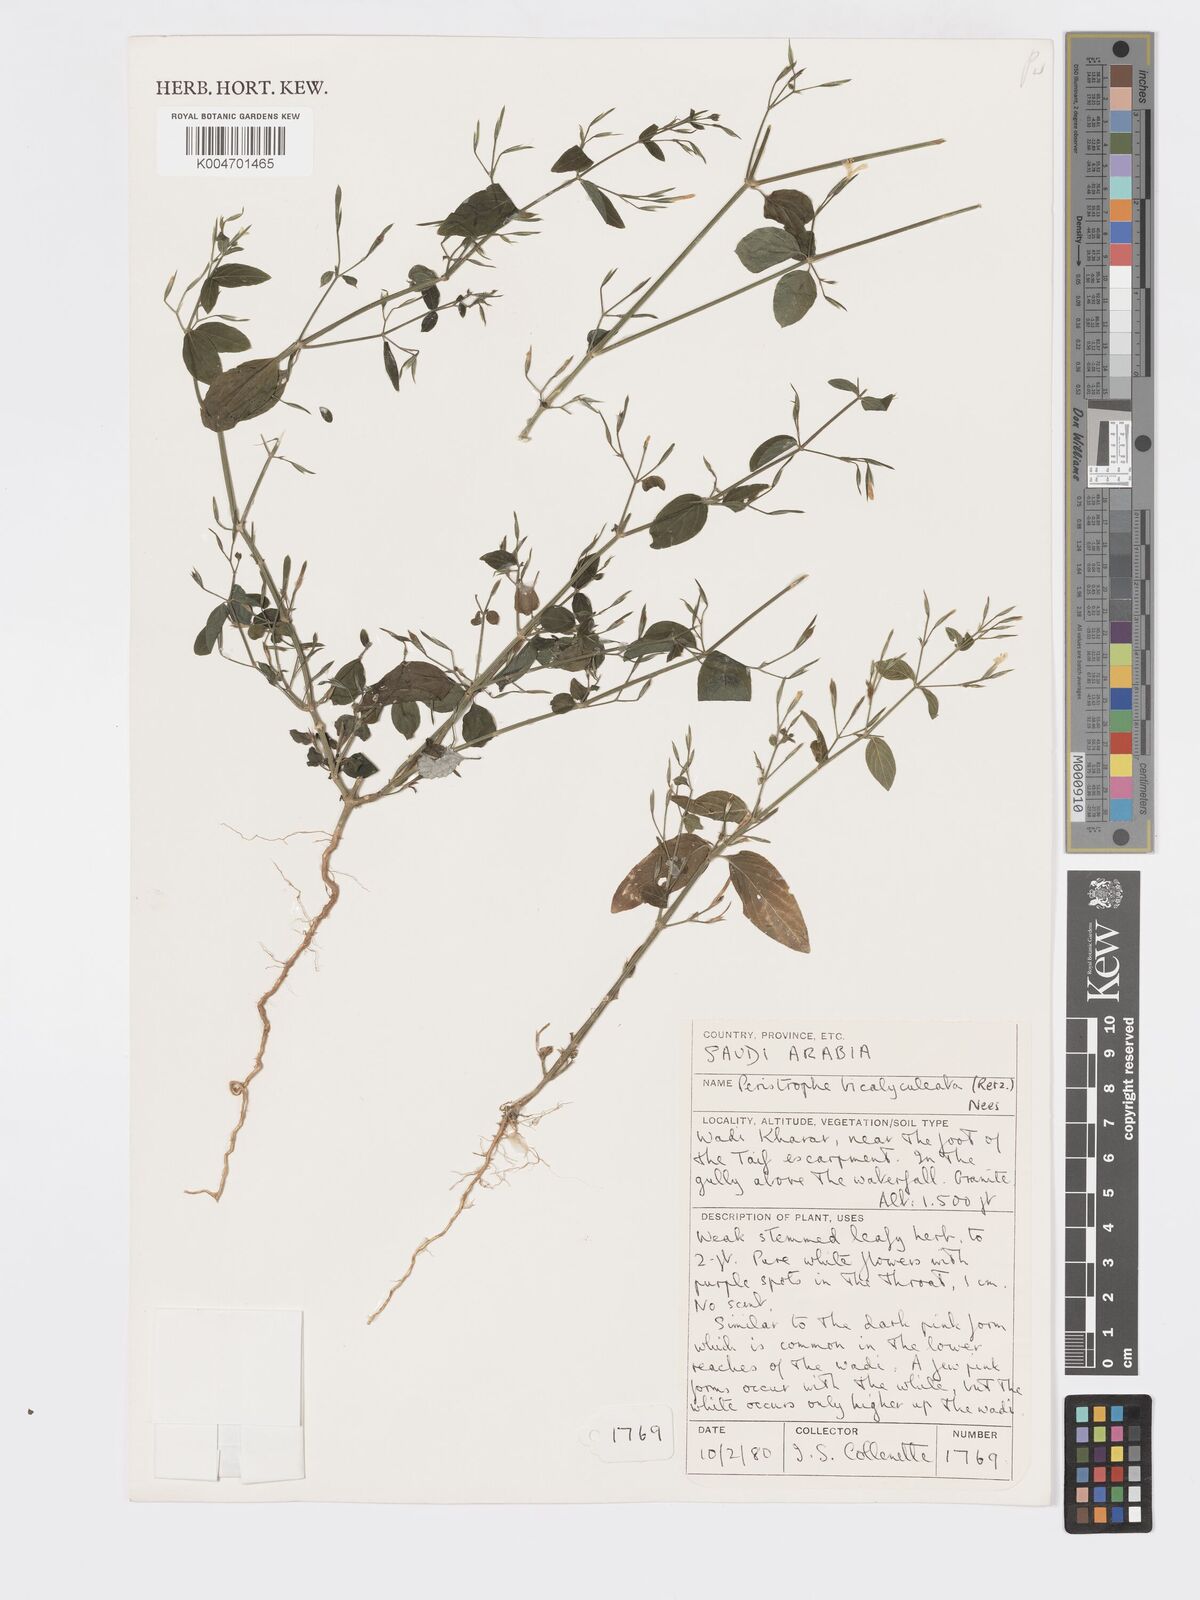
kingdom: Plantae
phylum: Tracheophyta
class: Magnoliopsida
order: Lamiales
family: Acanthaceae
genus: Dicliptera
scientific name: Dicliptera paniculata
